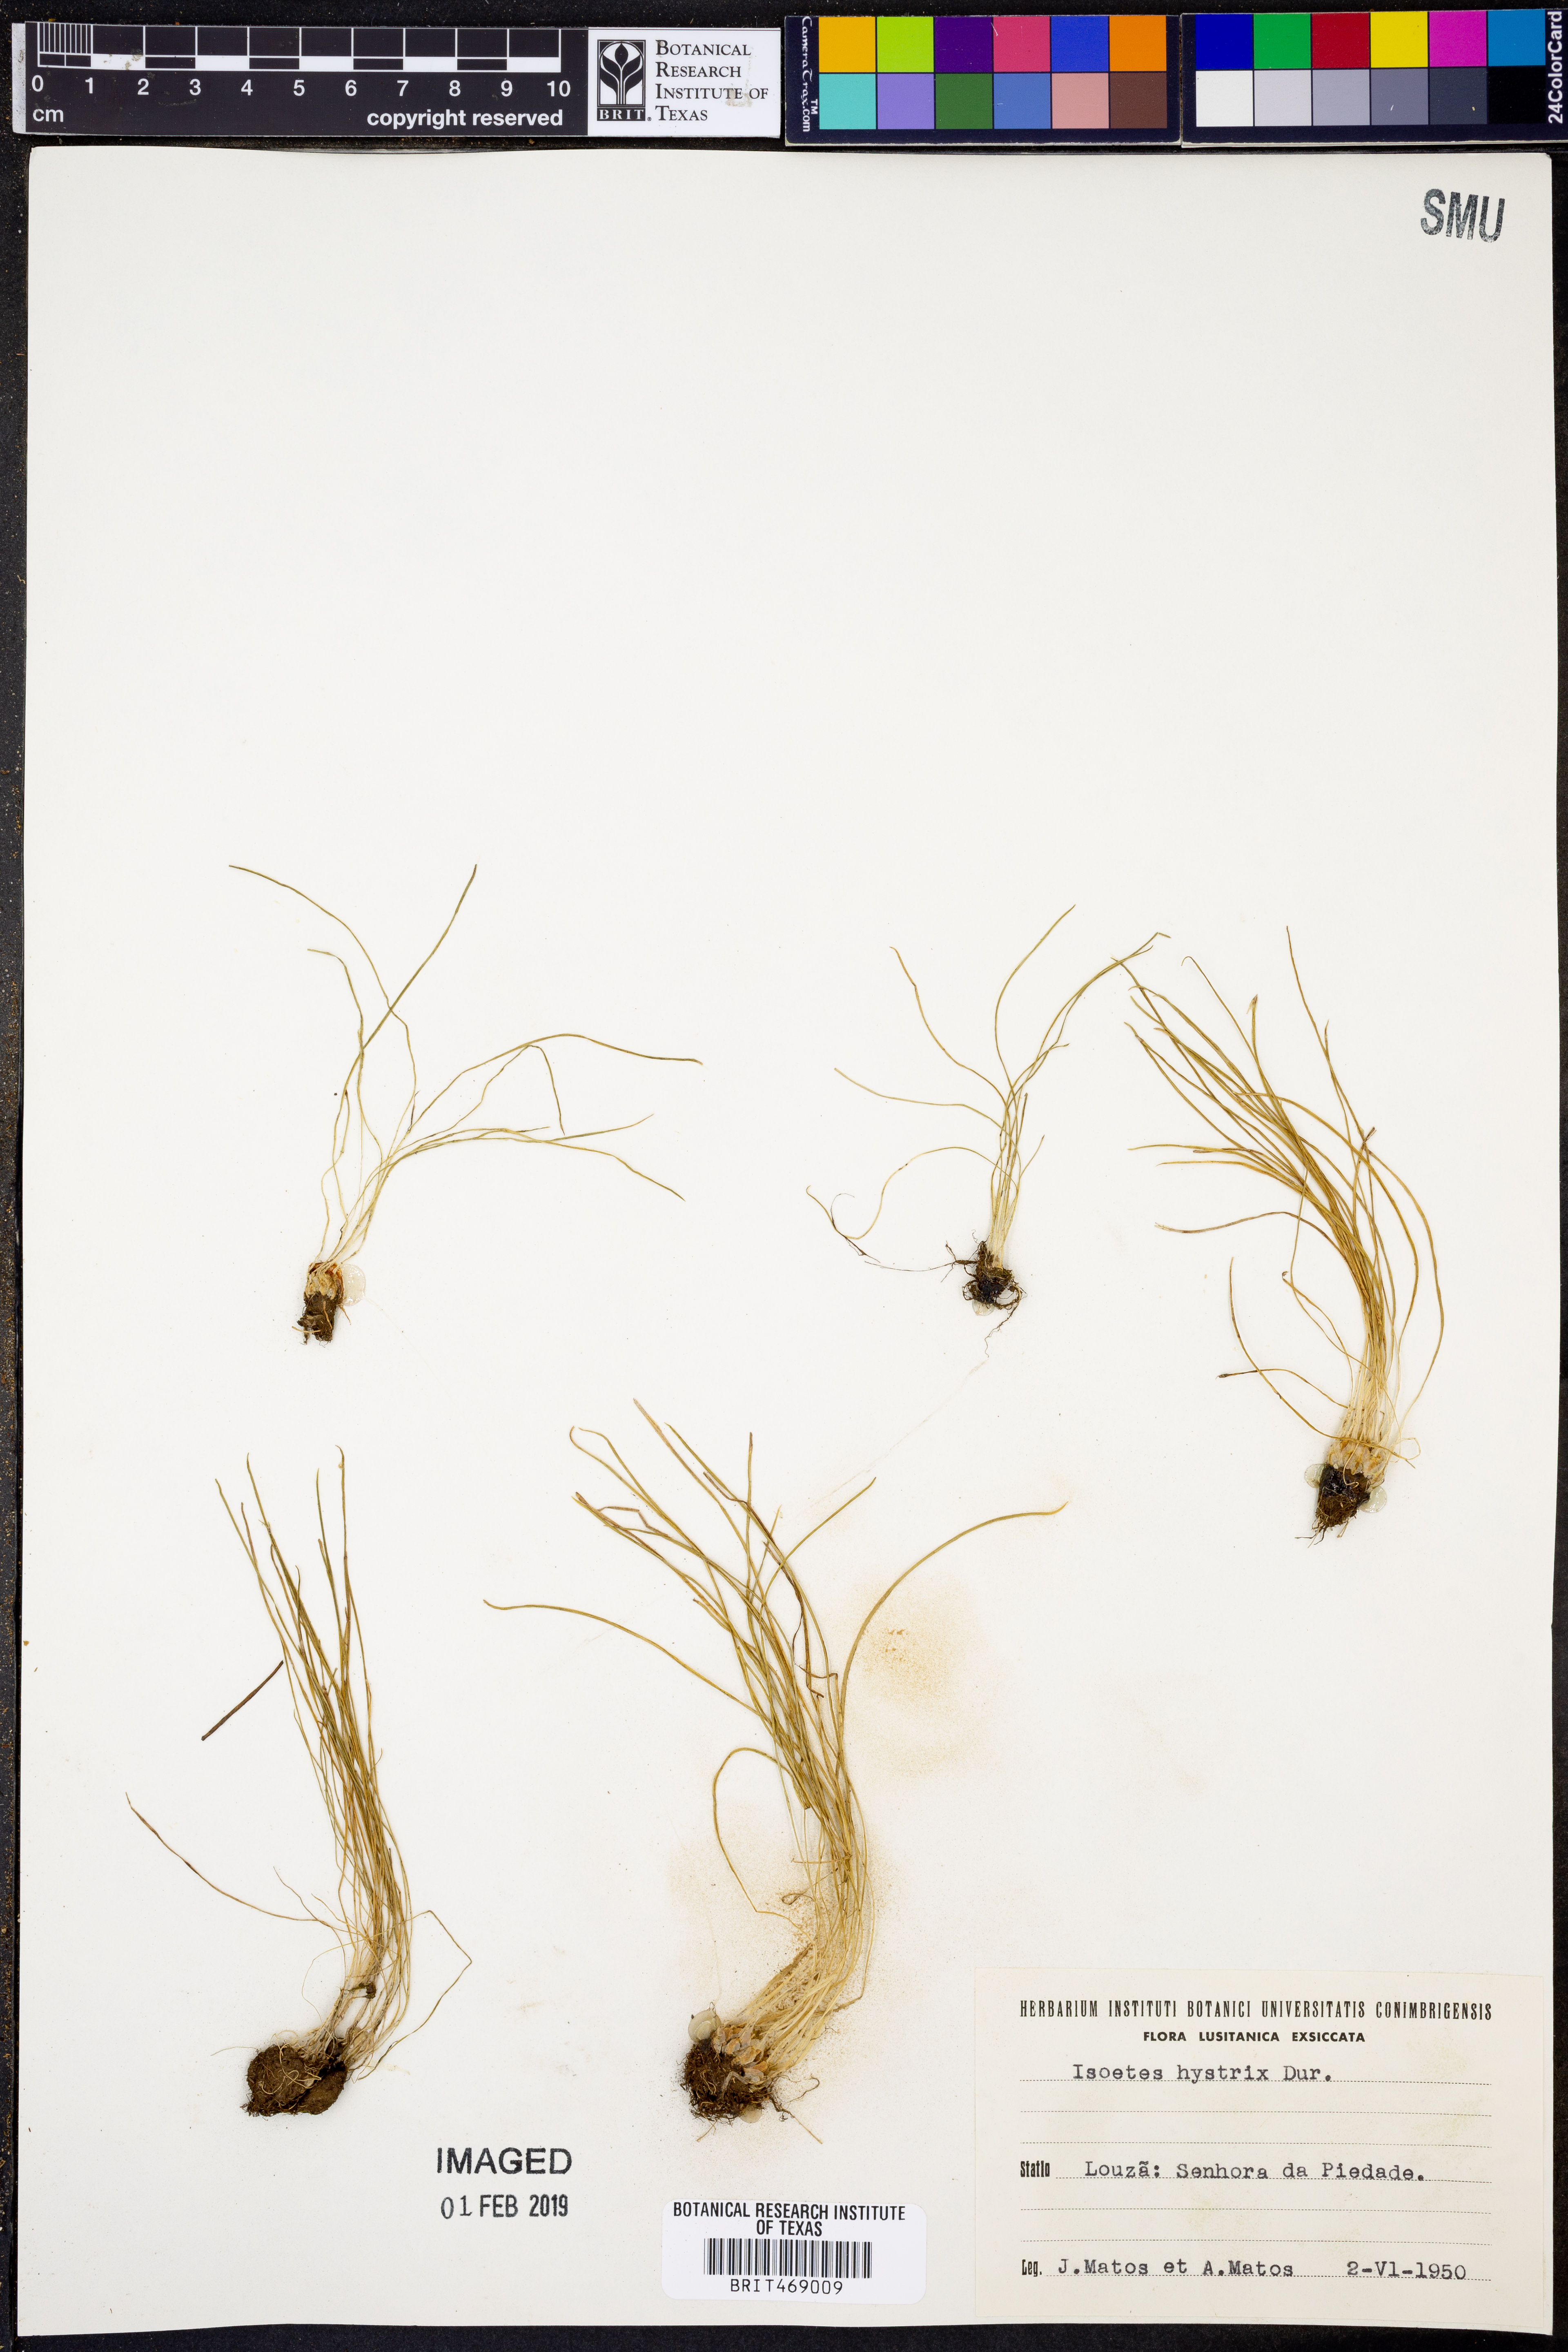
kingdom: Plantae
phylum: Tracheophyta
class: Lycopodiopsida
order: Isoetales
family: Isoetaceae
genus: Isoetes
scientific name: Isoetes histrix
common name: Land quillwort
